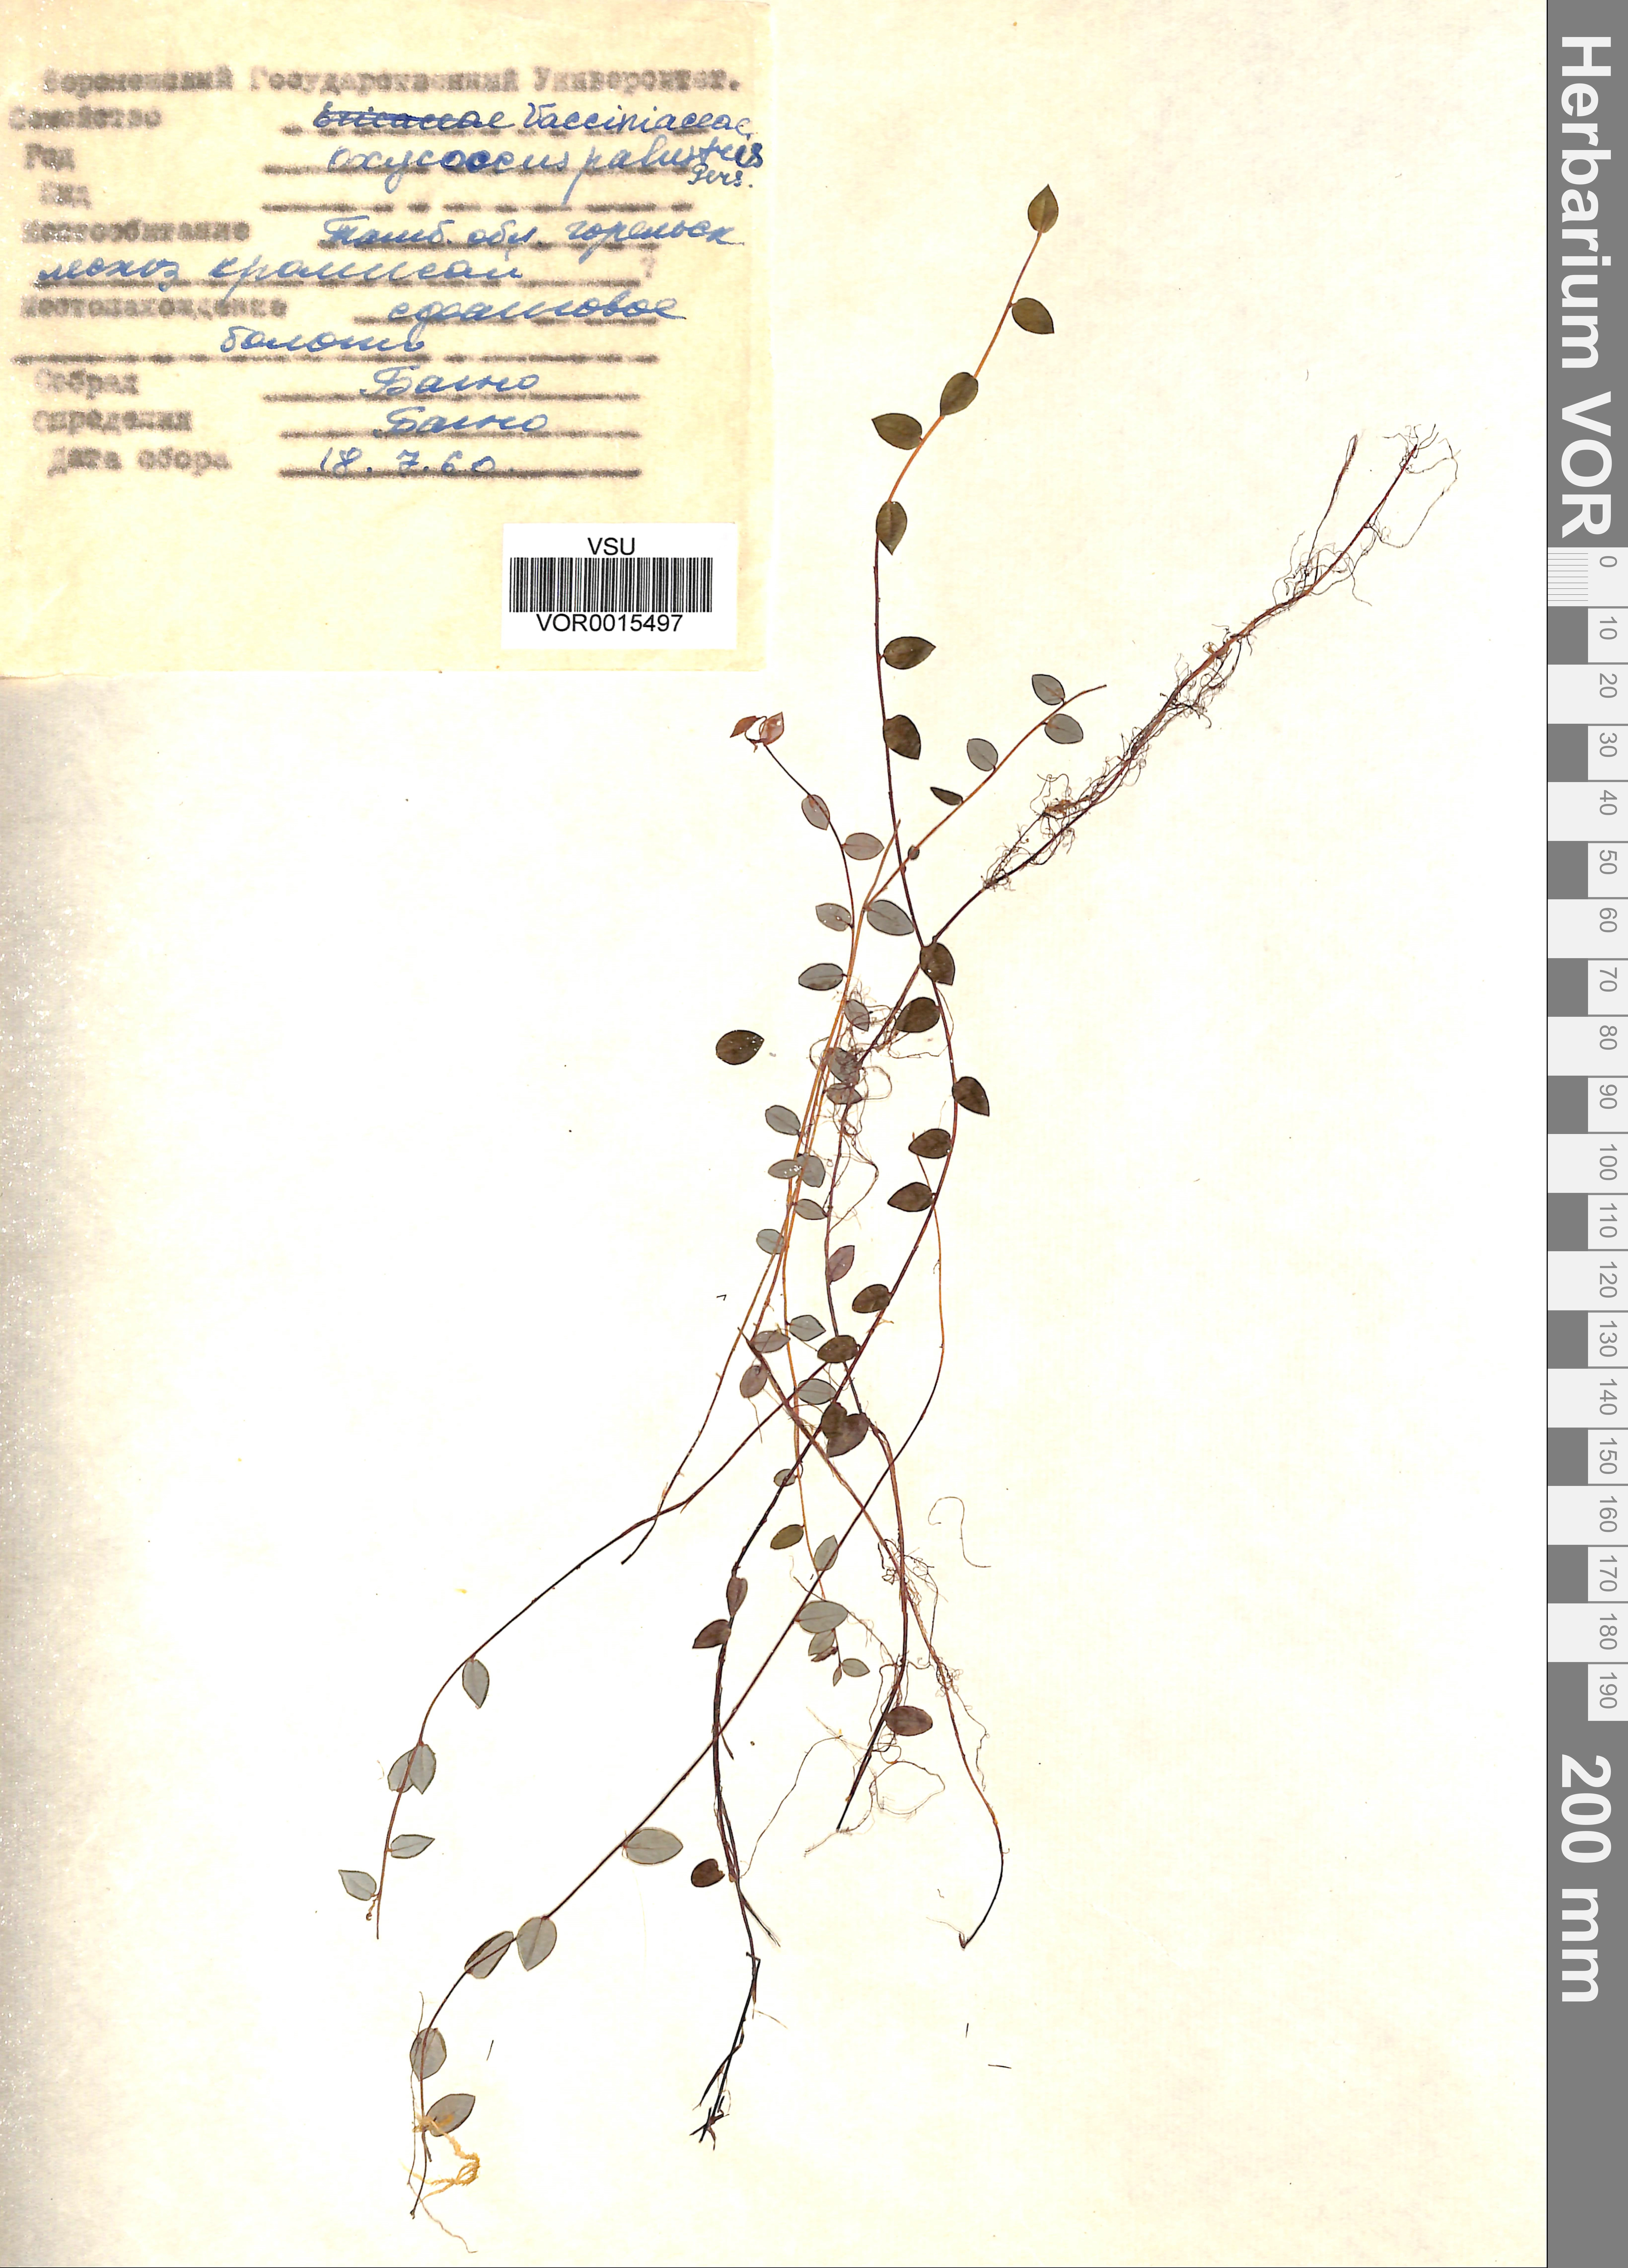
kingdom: Plantae
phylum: Tracheophyta
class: Magnoliopsida
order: Ericales
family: Ericaceae
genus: Vaccinium
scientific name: Vaccinium oxycoccos
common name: Cranberry
